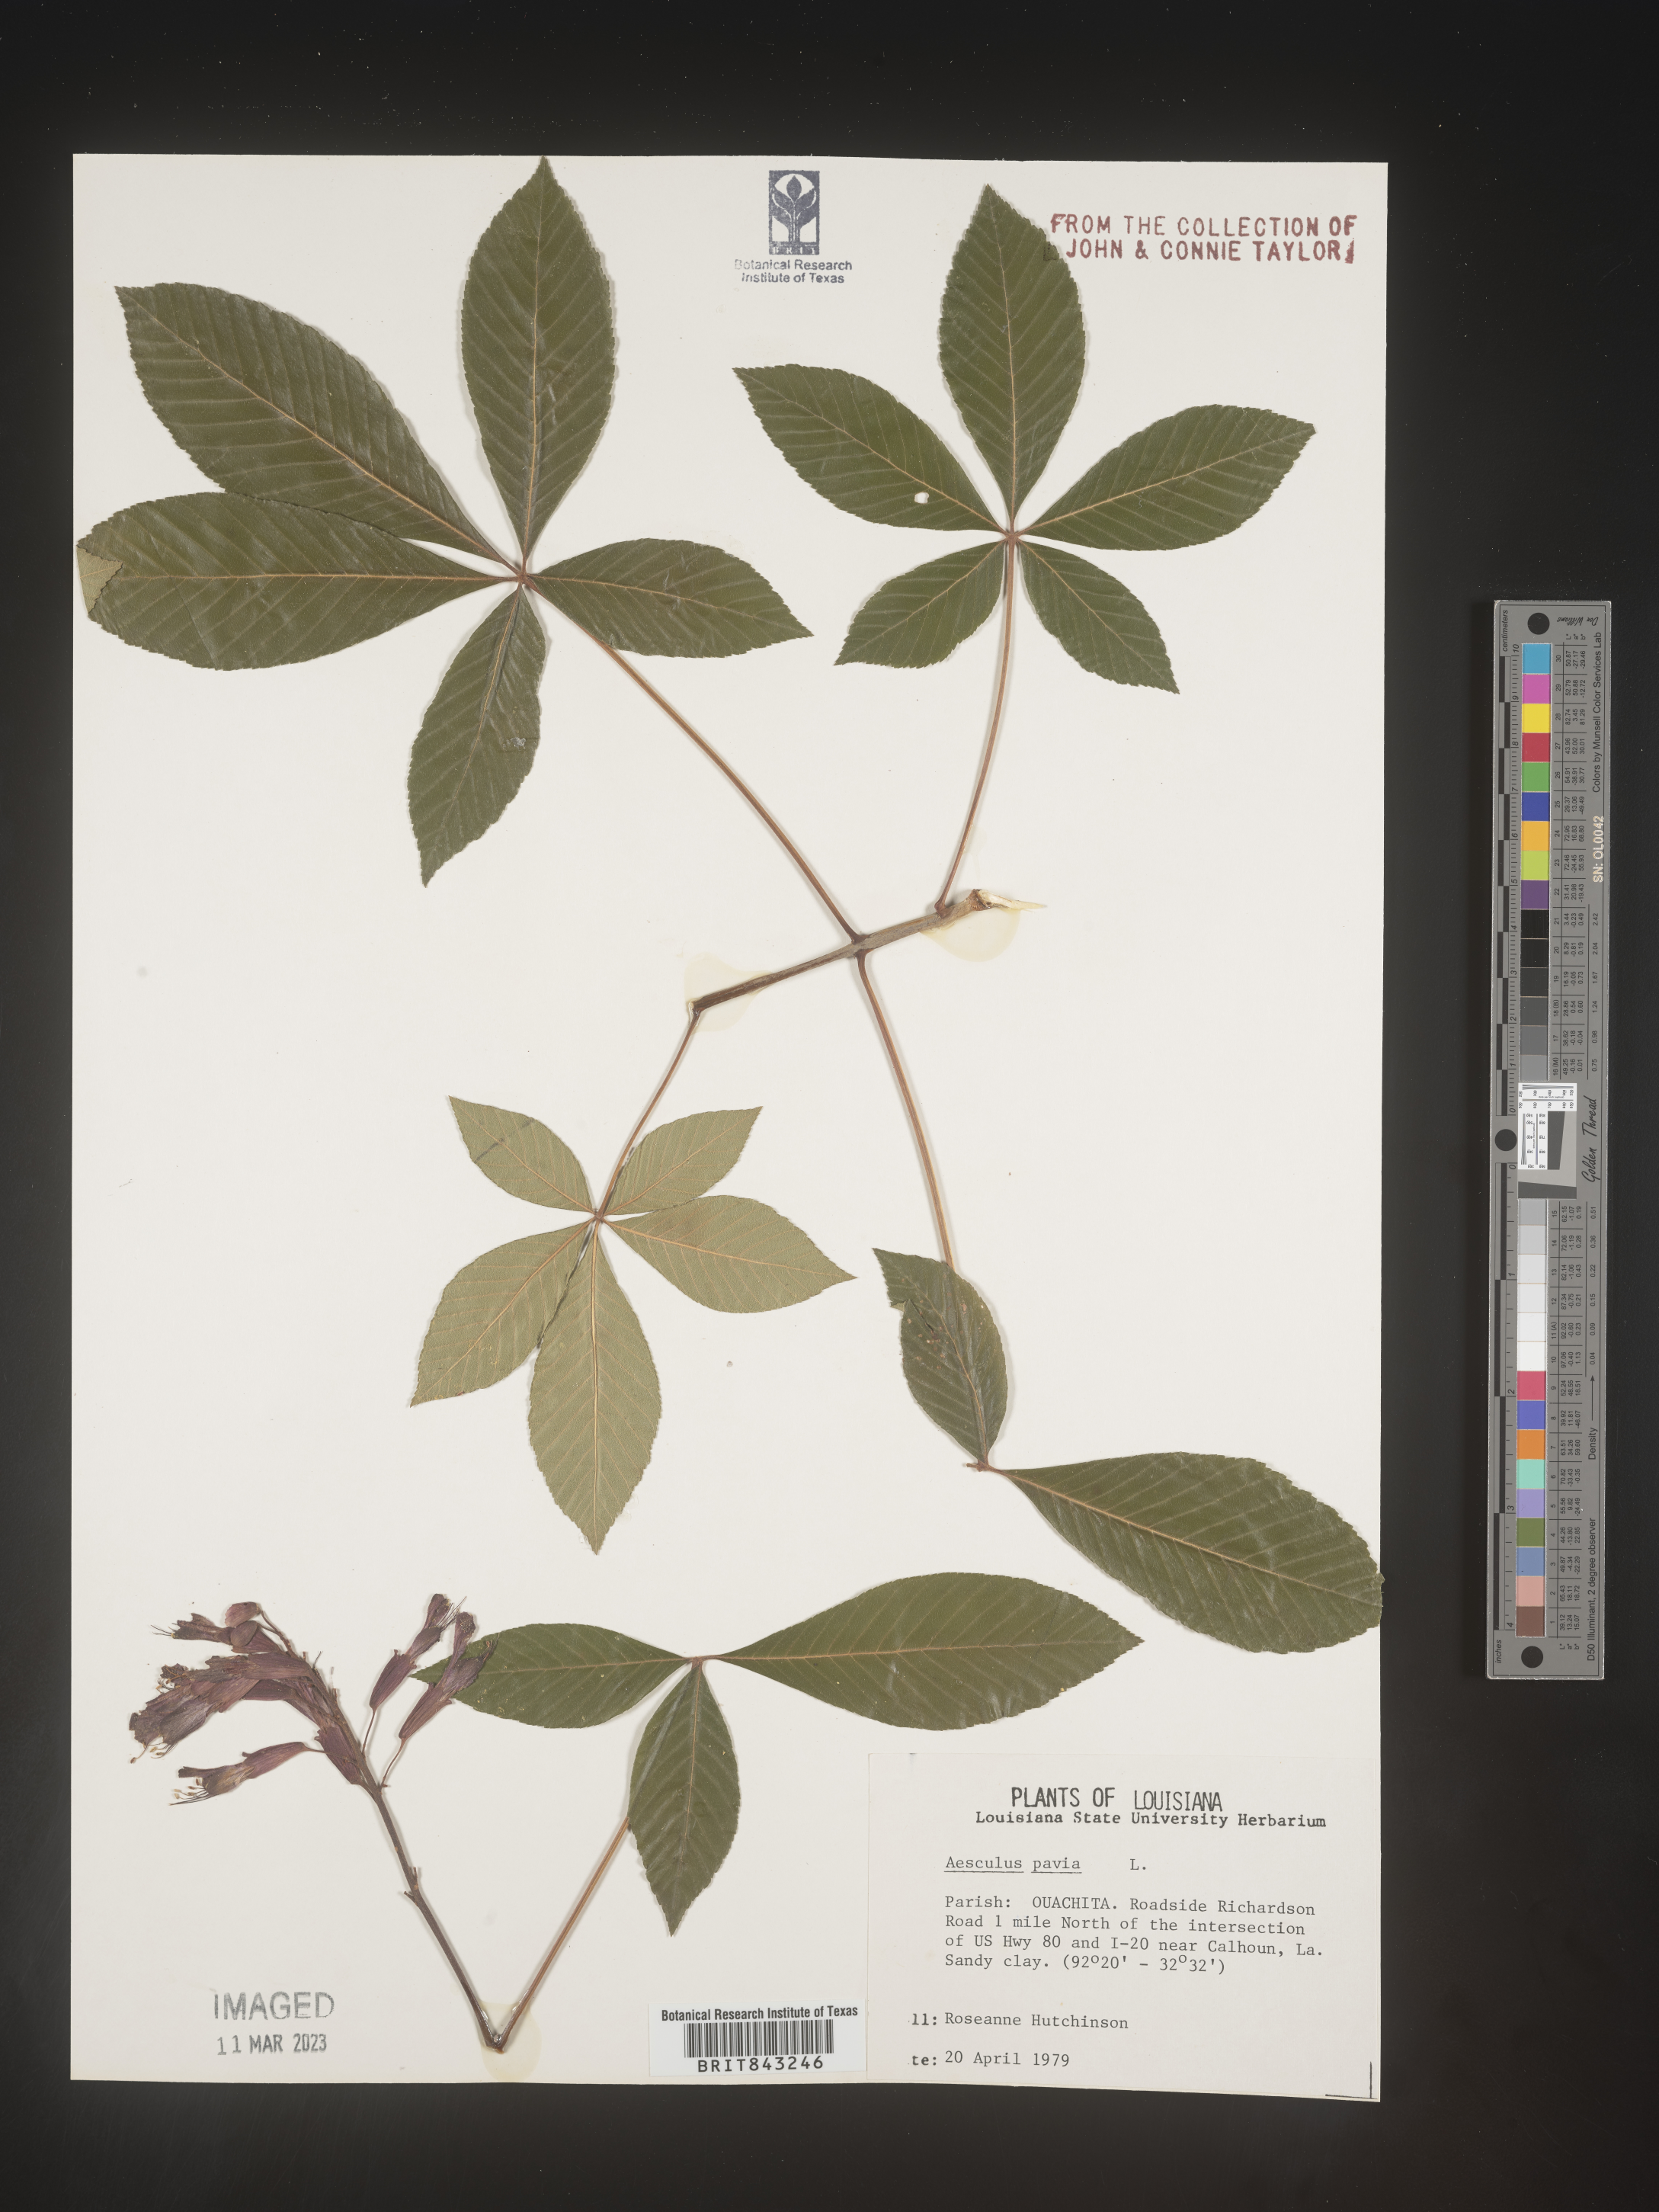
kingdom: Plantae
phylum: Tracheophyta
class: Magnoliopsida
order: Sapindales
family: Sapindaceae
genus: Aesculus
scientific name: Aesculus pavia
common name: Red buckeye
